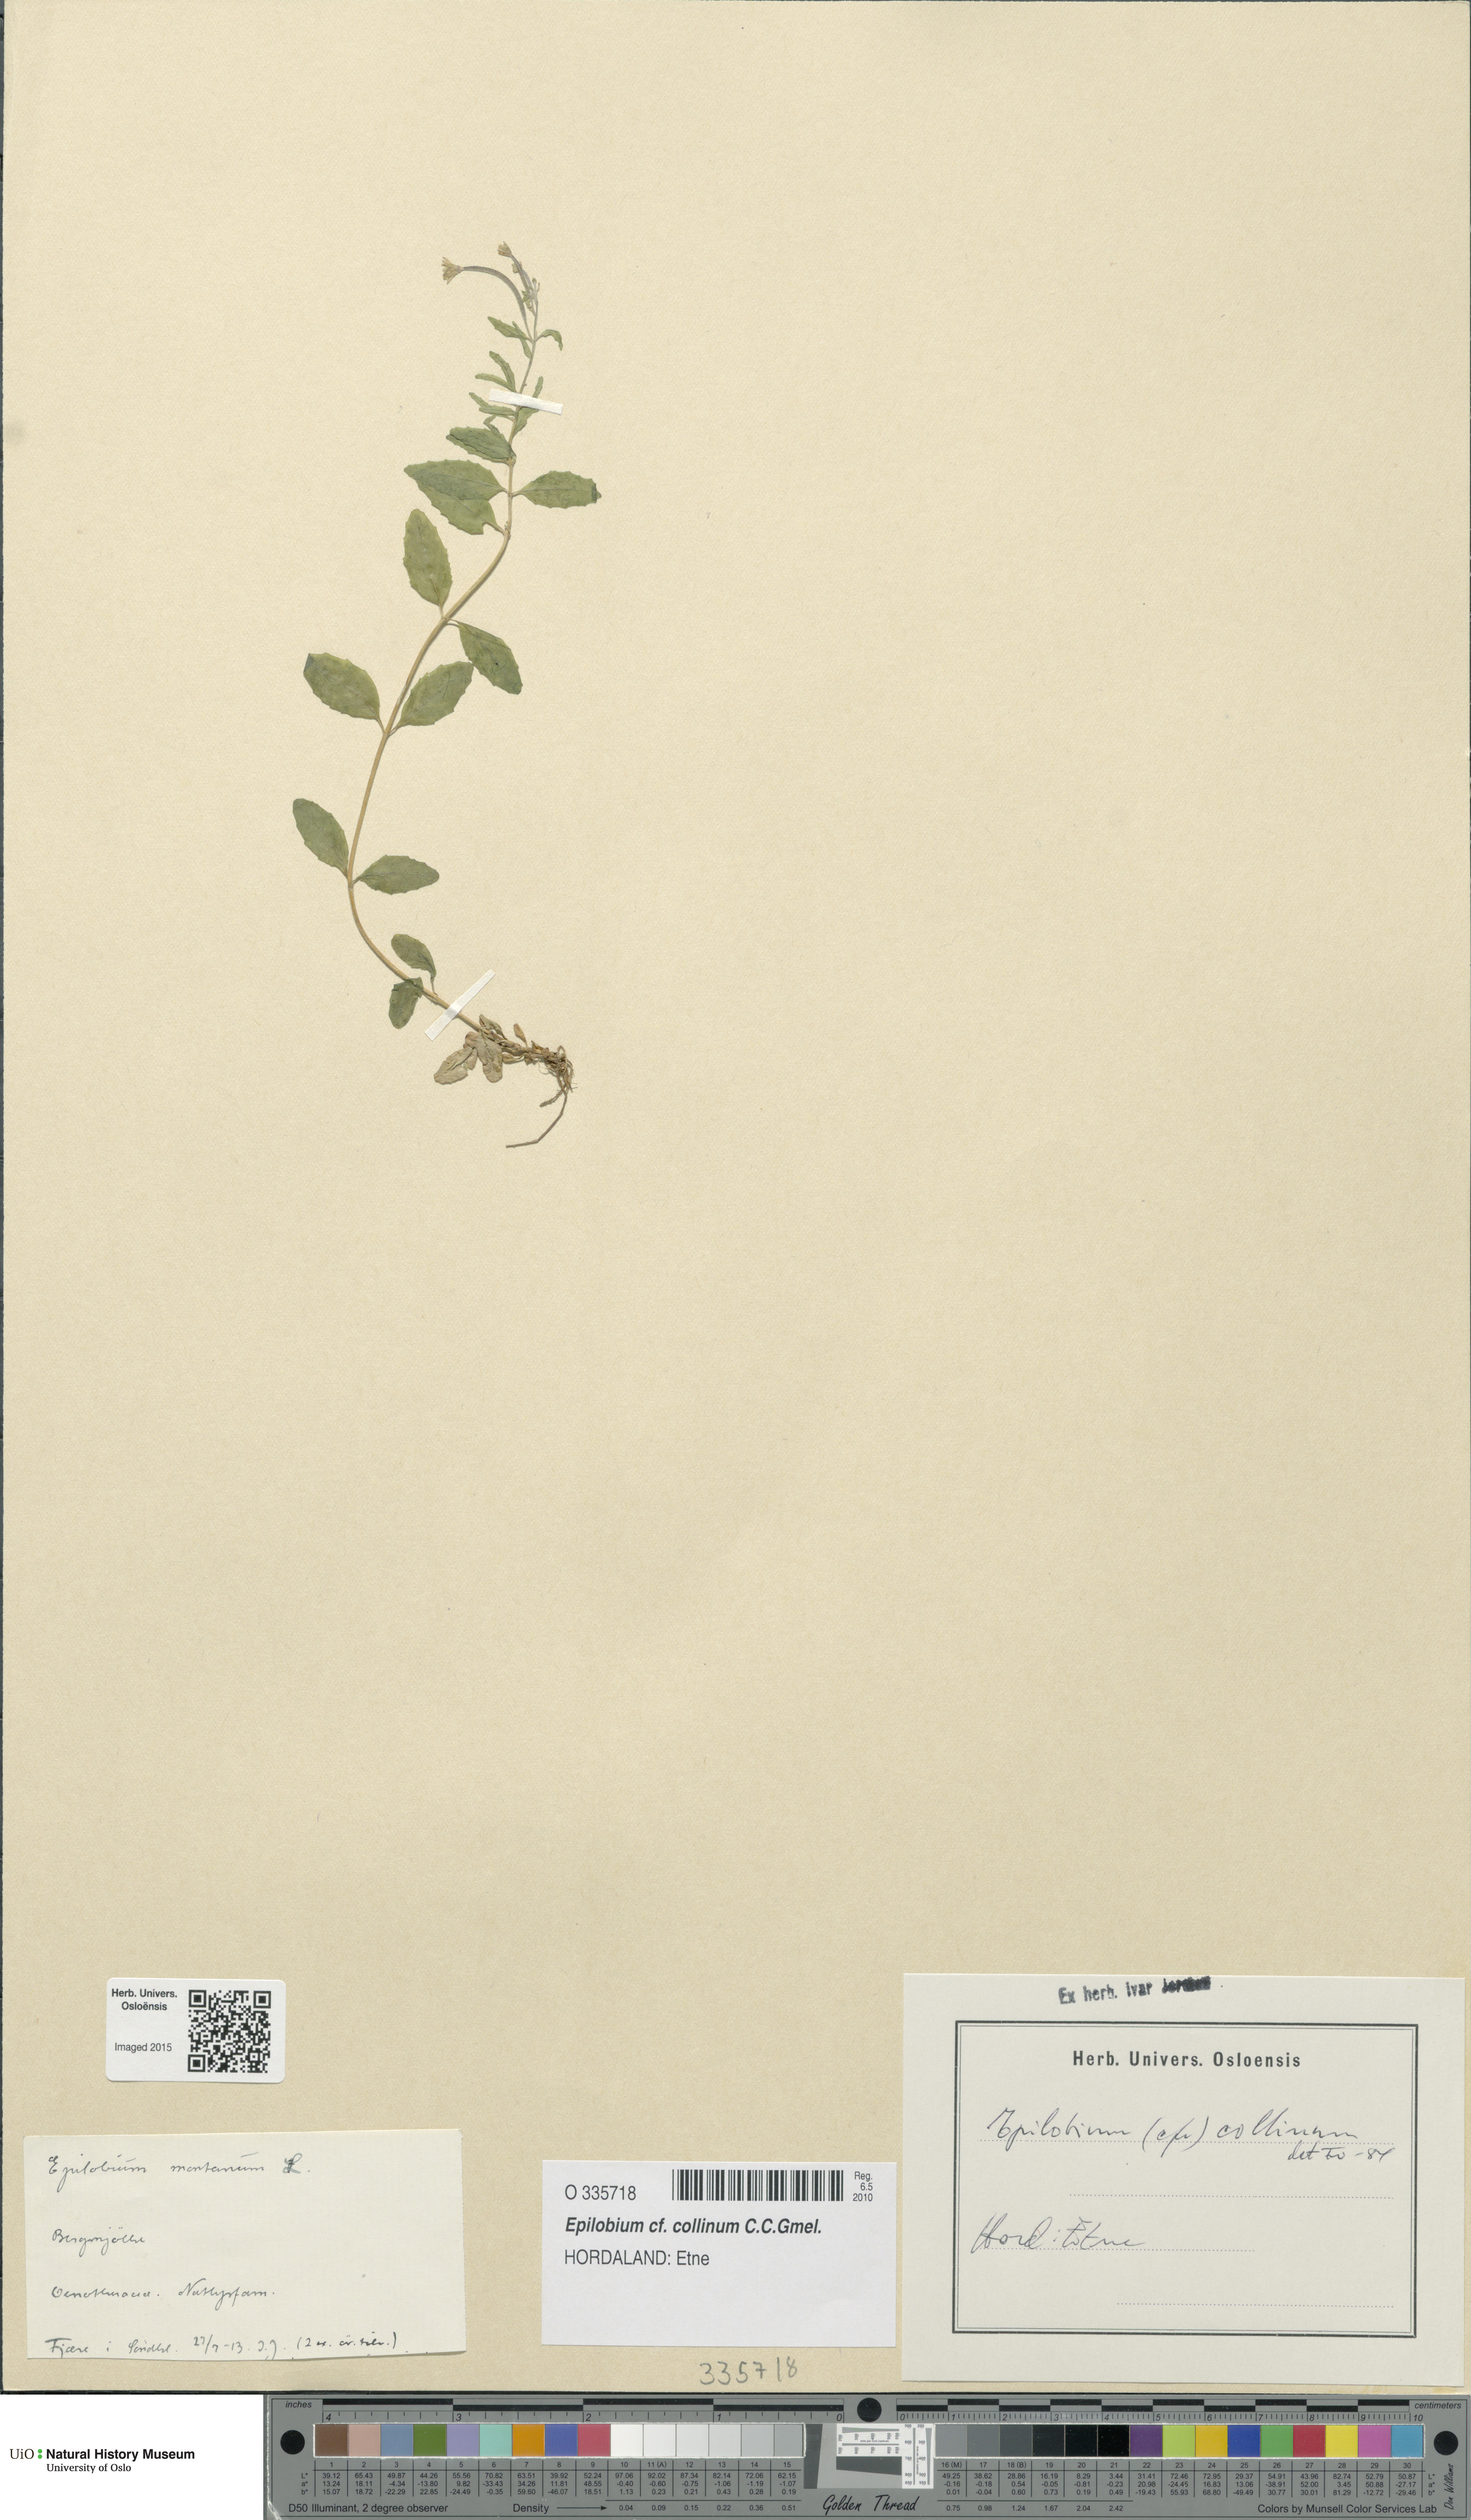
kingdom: Plantae
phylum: Tracheophyta
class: Magnoliopsida
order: Myrtales
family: Onagraceae
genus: Epilobium
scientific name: Epilobium collinum
